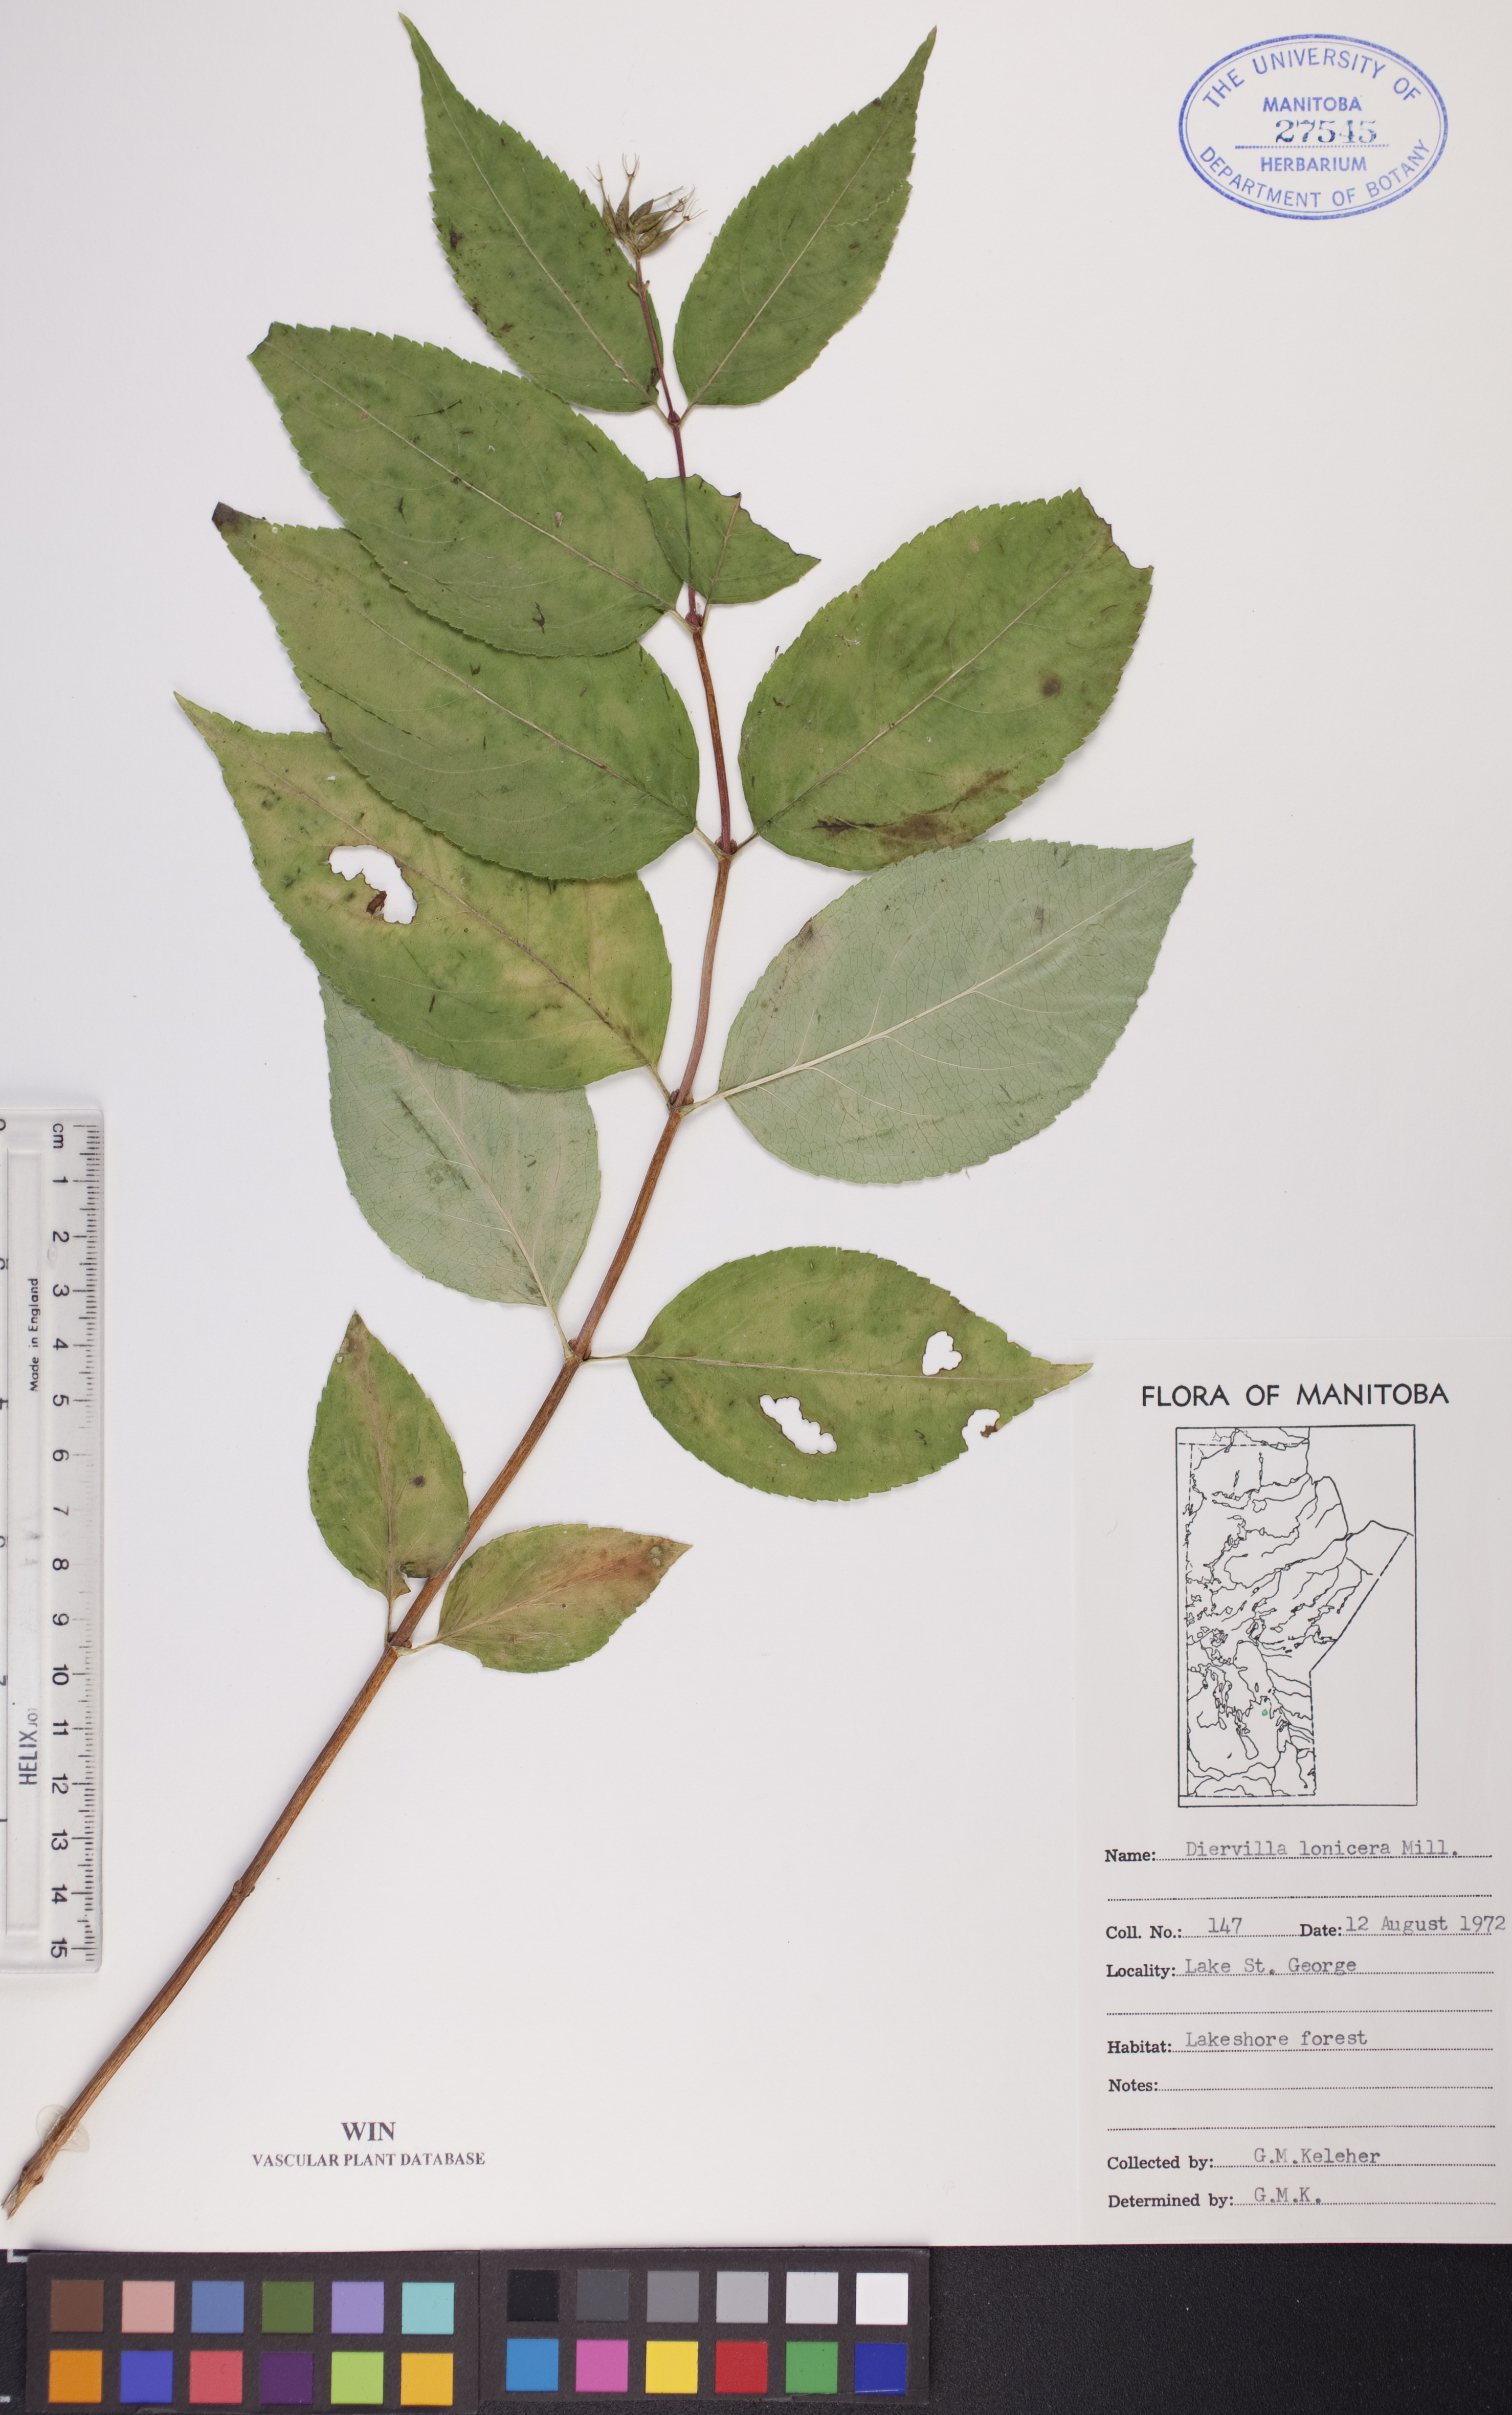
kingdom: Plantae
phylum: Tracheophyta
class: Magnoliopsida
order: Dipsacales
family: Caprifoliaceae
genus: Diervilla
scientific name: Diervilla lonicera
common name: Bush-honeysuckle
